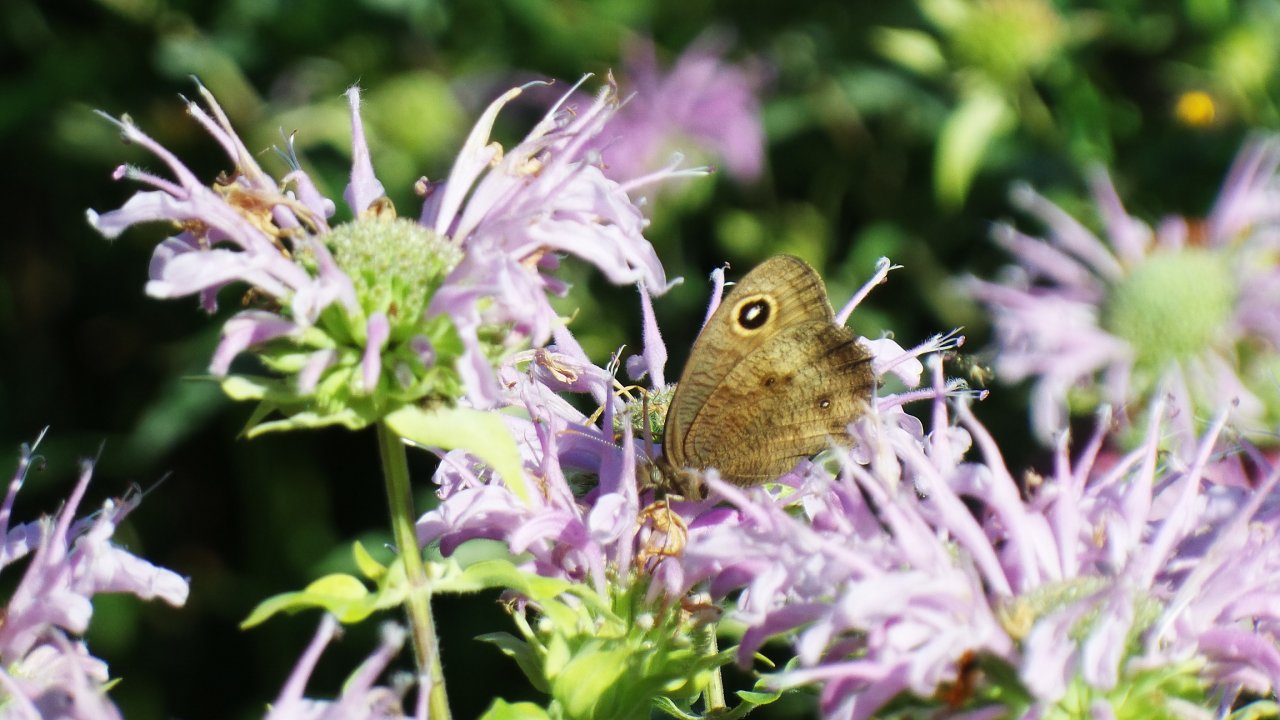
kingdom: Animalia
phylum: Arthropoda
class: Insecta
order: Lepidoptera
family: Nymphalidae
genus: Cercyonis
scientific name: Cercyonis pegala
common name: Common Wood-Nymph
